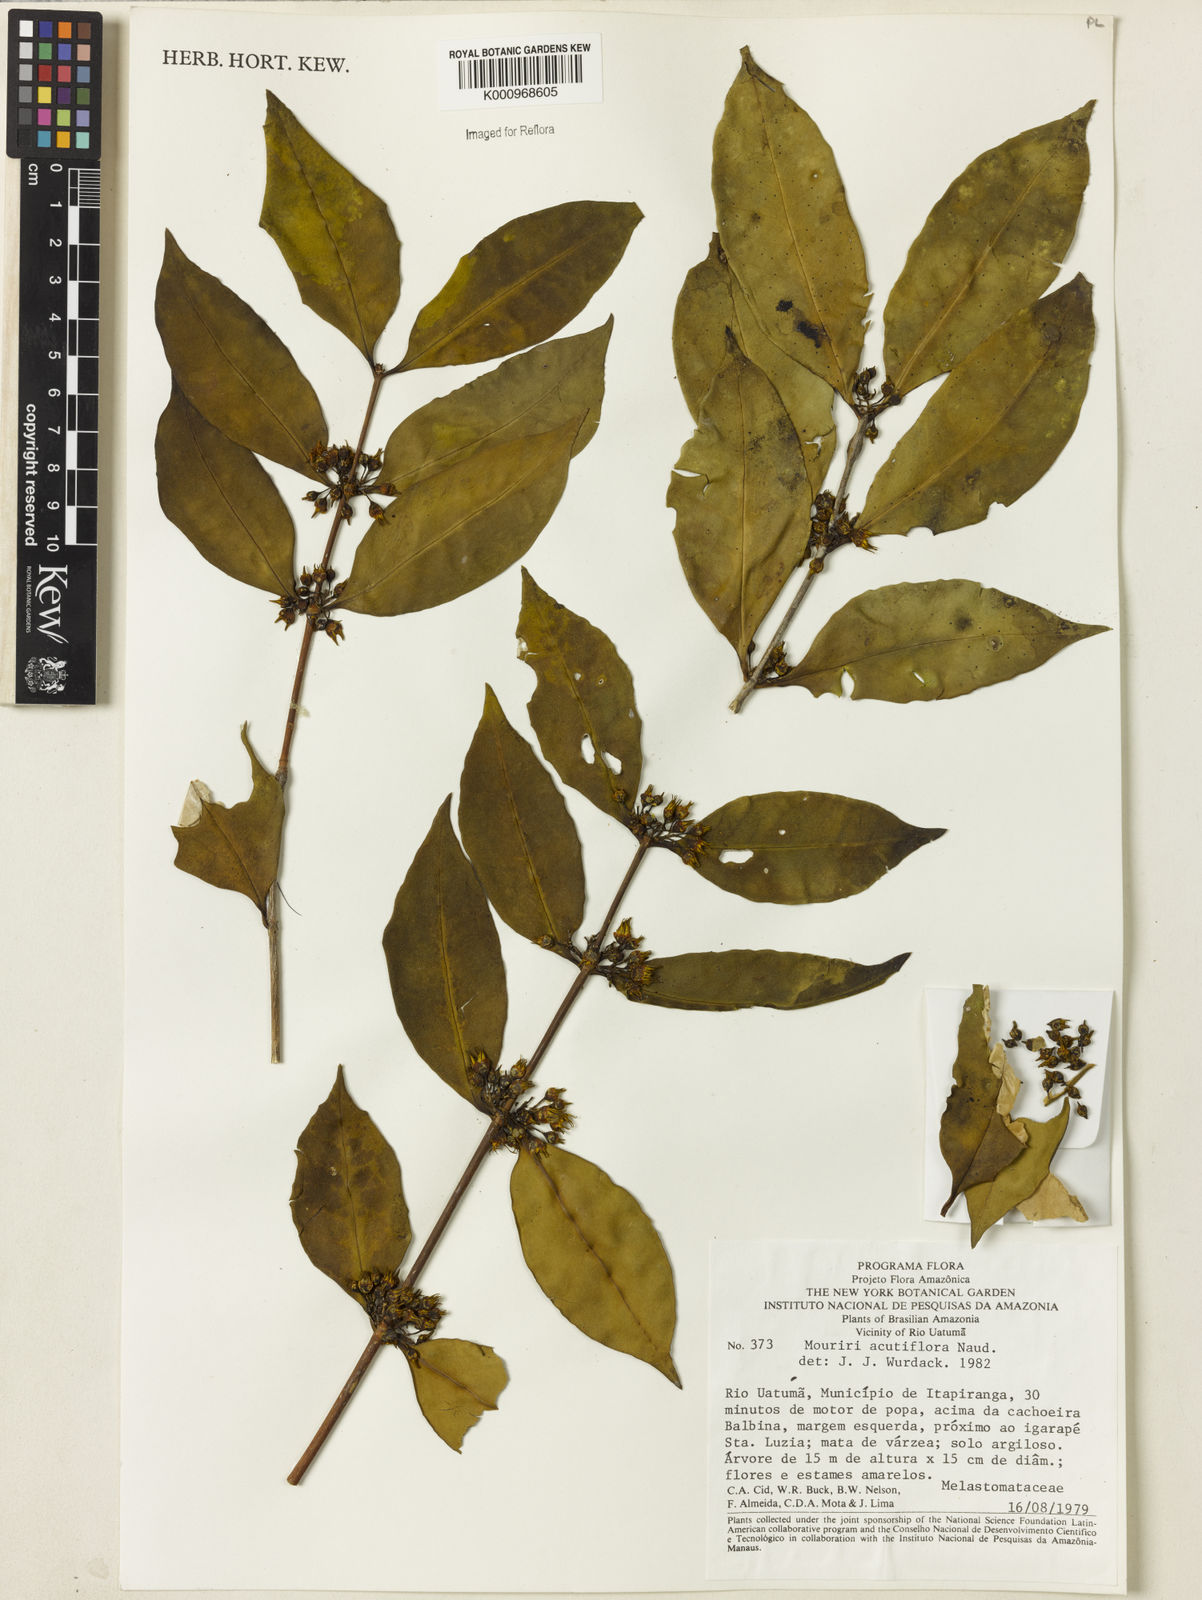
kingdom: Plantae
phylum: Tracheophyta
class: Magnoliopsida
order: Myrtales
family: Melastomataceae
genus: Mouriri
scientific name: Mouriri acutiflora
